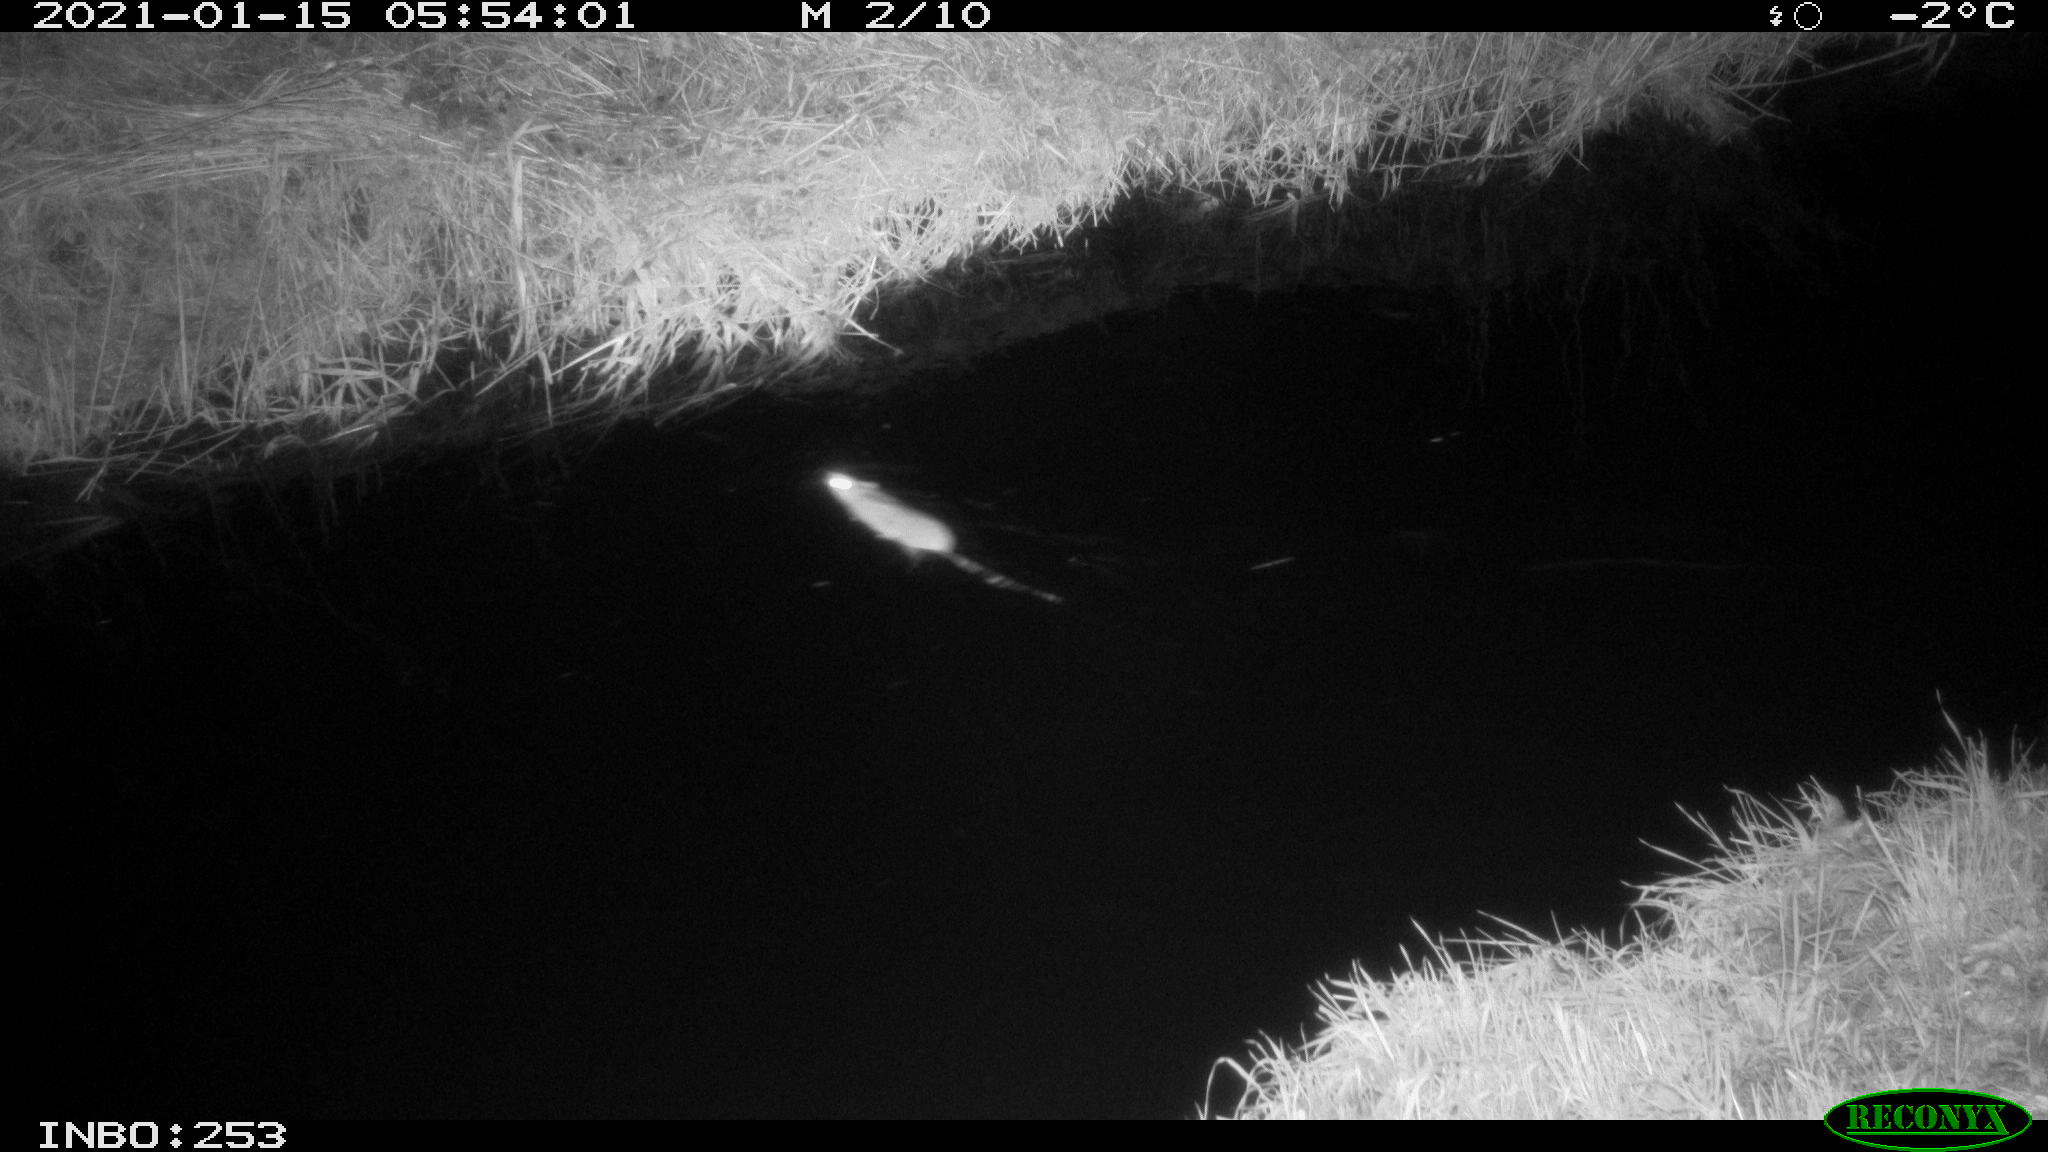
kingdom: Animalia
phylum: Chordata
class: Mammalia
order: Rodentia
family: Muridae
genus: Rattus
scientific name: Rattus norvegicus
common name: Brown rat
